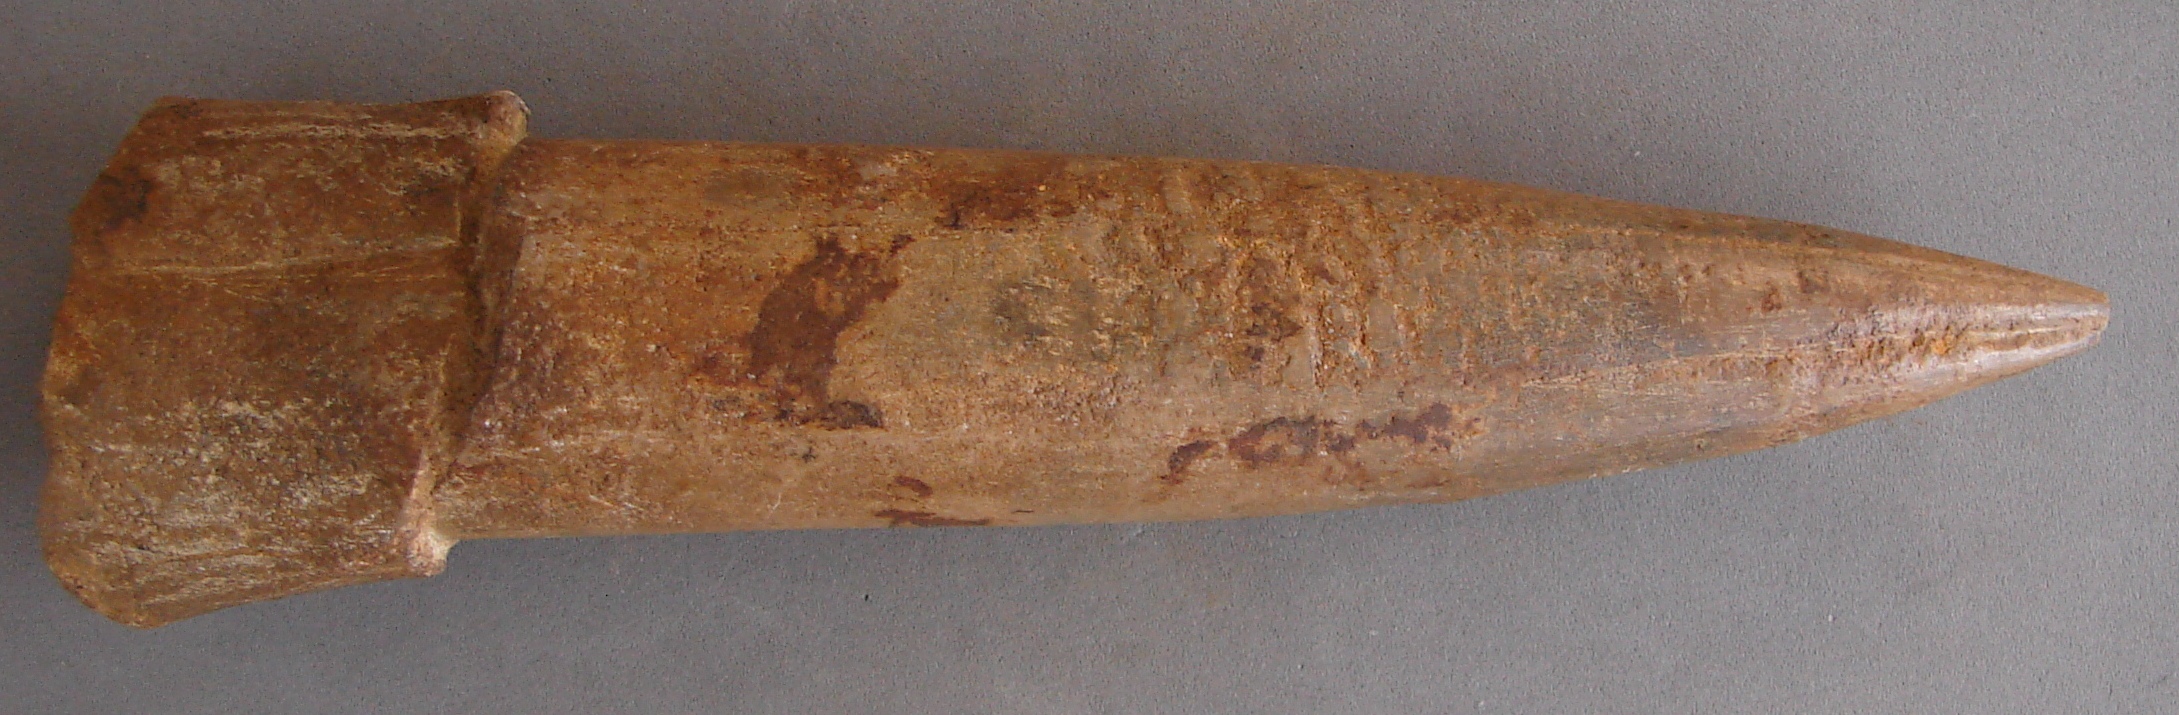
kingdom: Animalia
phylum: Mollusca
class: Cephalopoda
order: Belemnitida
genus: Mesoteuthis
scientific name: Mesoteuthis
